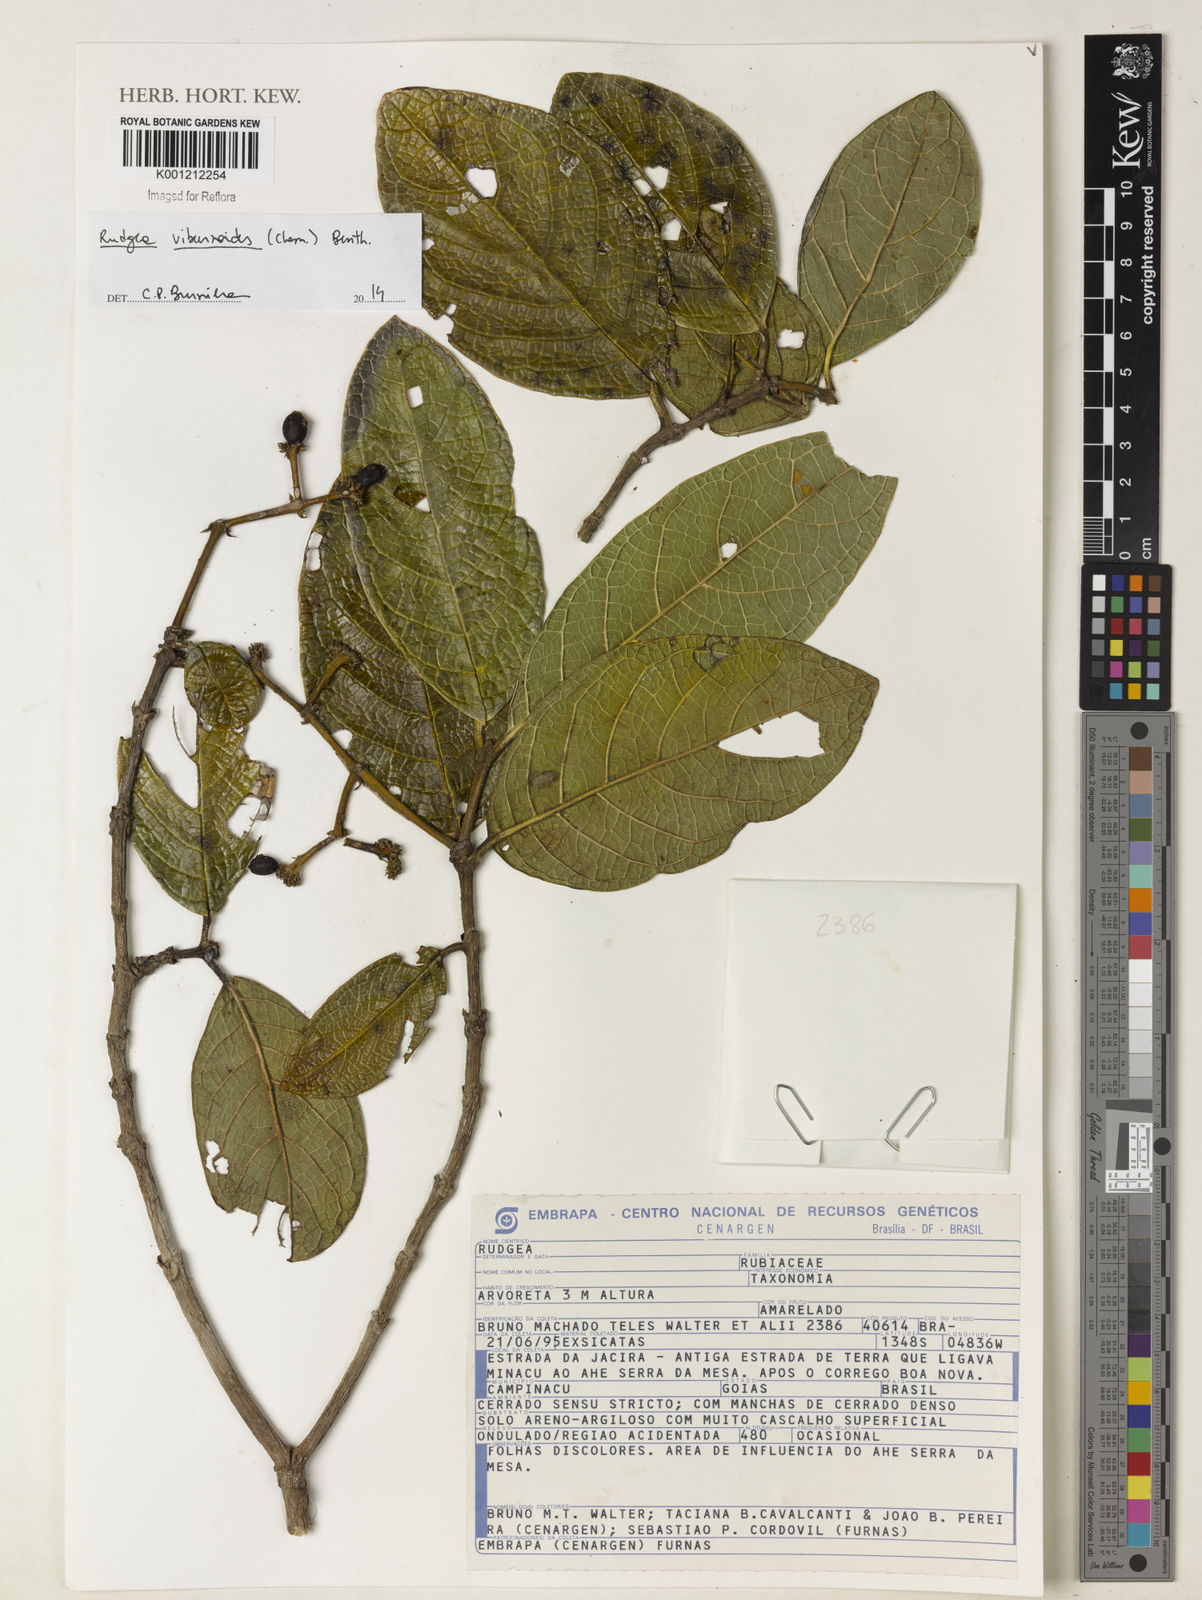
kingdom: Plantae
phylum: Tracheophyta
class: Magnoliopsida
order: Gentianales
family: Rubiaceae
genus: Rudgea
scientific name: Rudgea viburnoides
